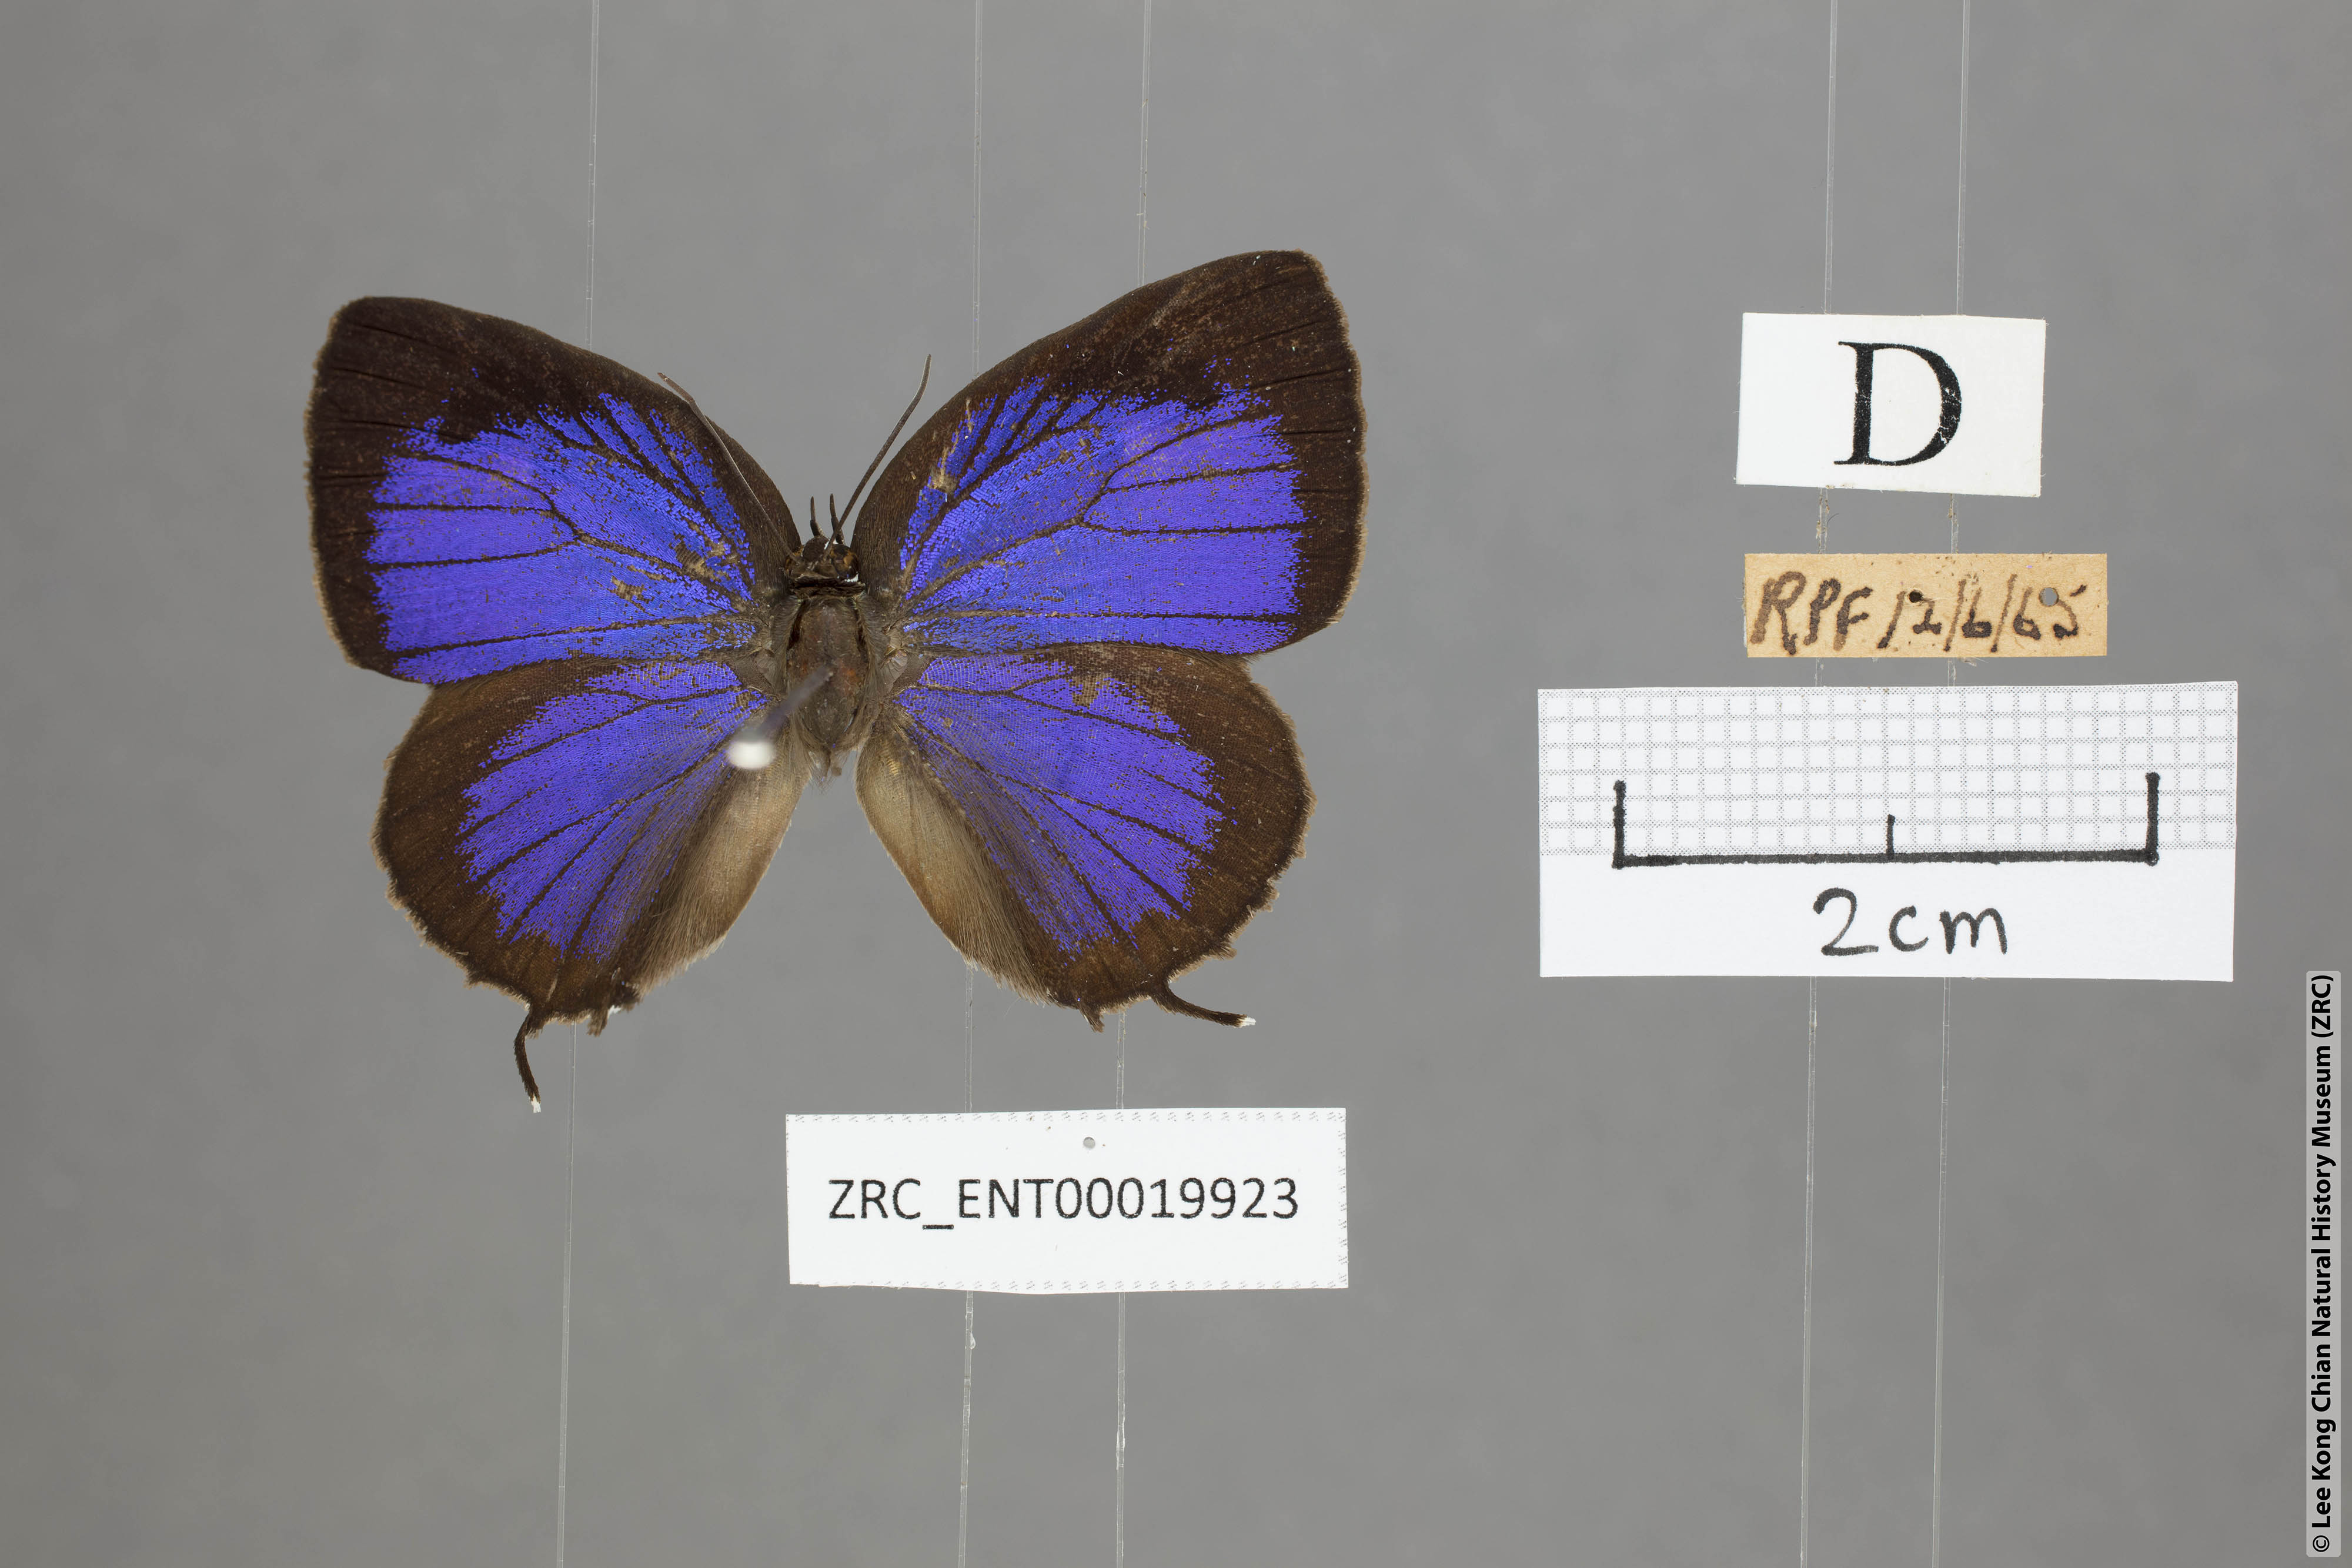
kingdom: Animalia
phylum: Arthropoda
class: Insecta
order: Lepidoptera
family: Lycaenidae
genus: Arhopala
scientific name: Arhopala vihara
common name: Large spotted oakblue
